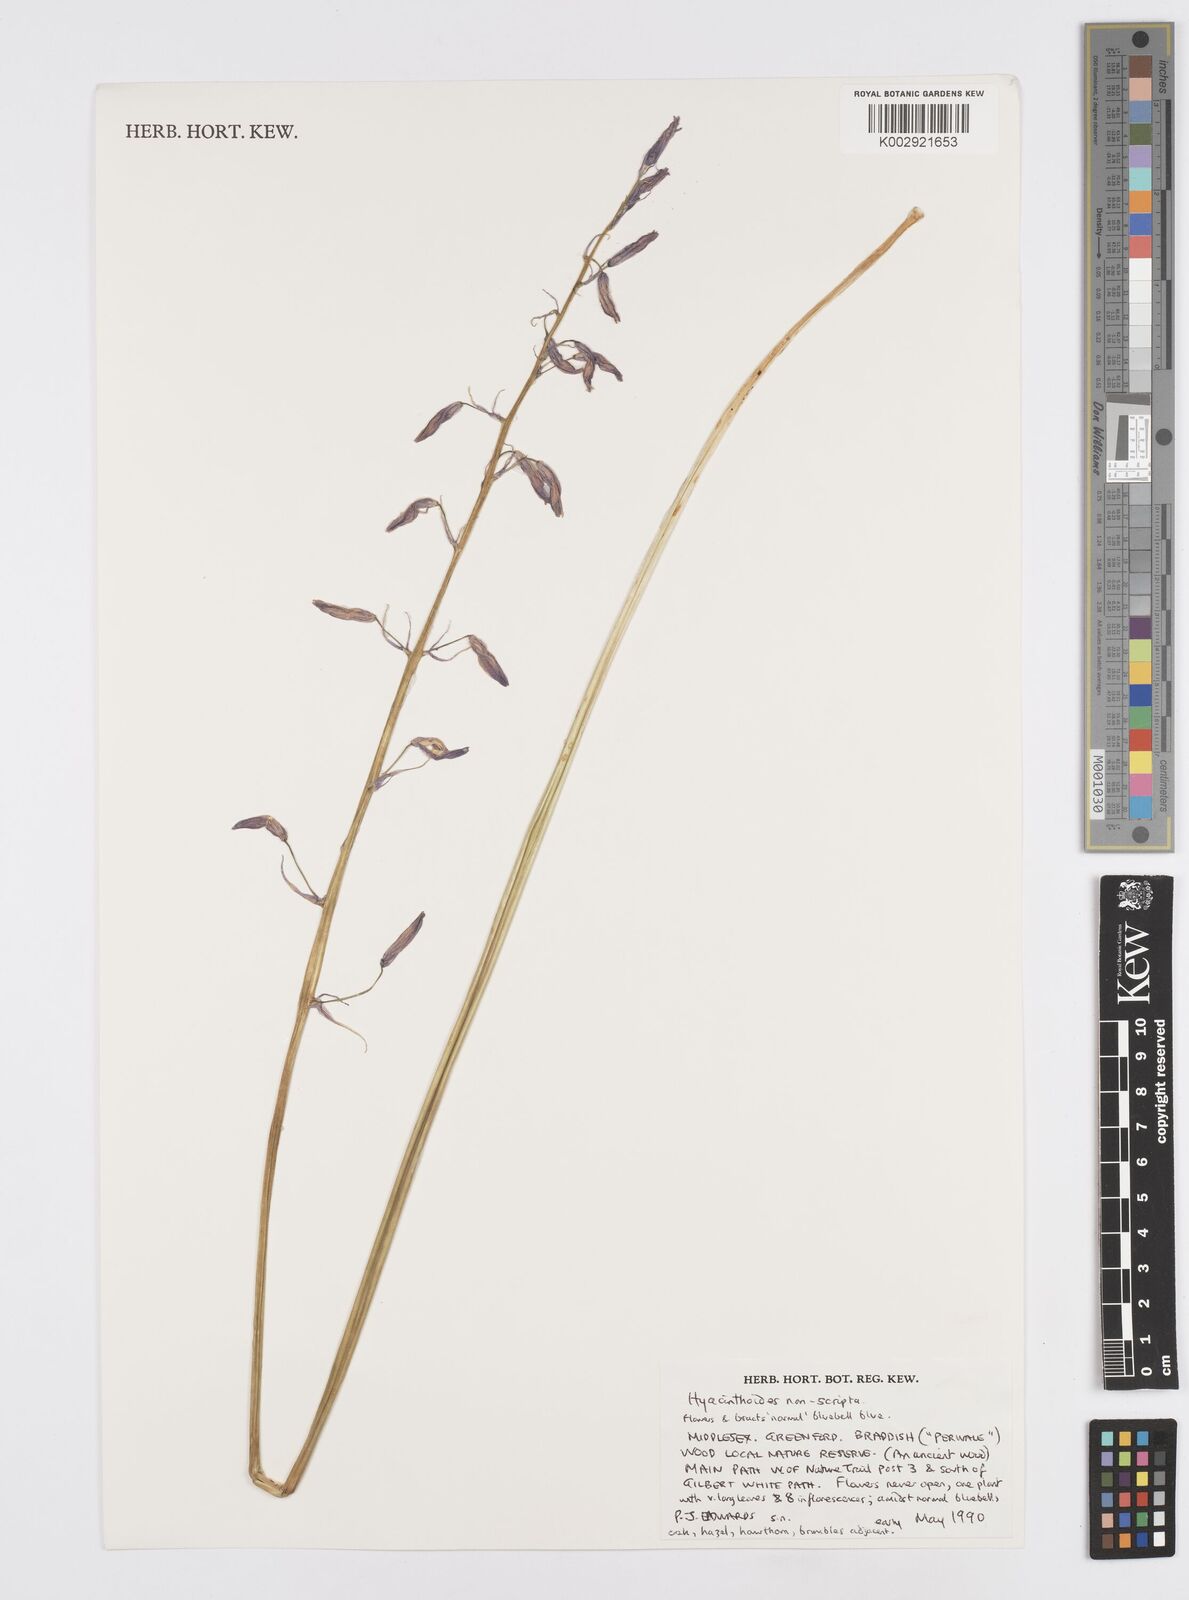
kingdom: Plantae
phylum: Tracheophyta
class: Liliopsida
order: Asparagales
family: Asparagaceae
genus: Hyacinthoides
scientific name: Hyacinthoides non-scripta
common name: Bluebell
